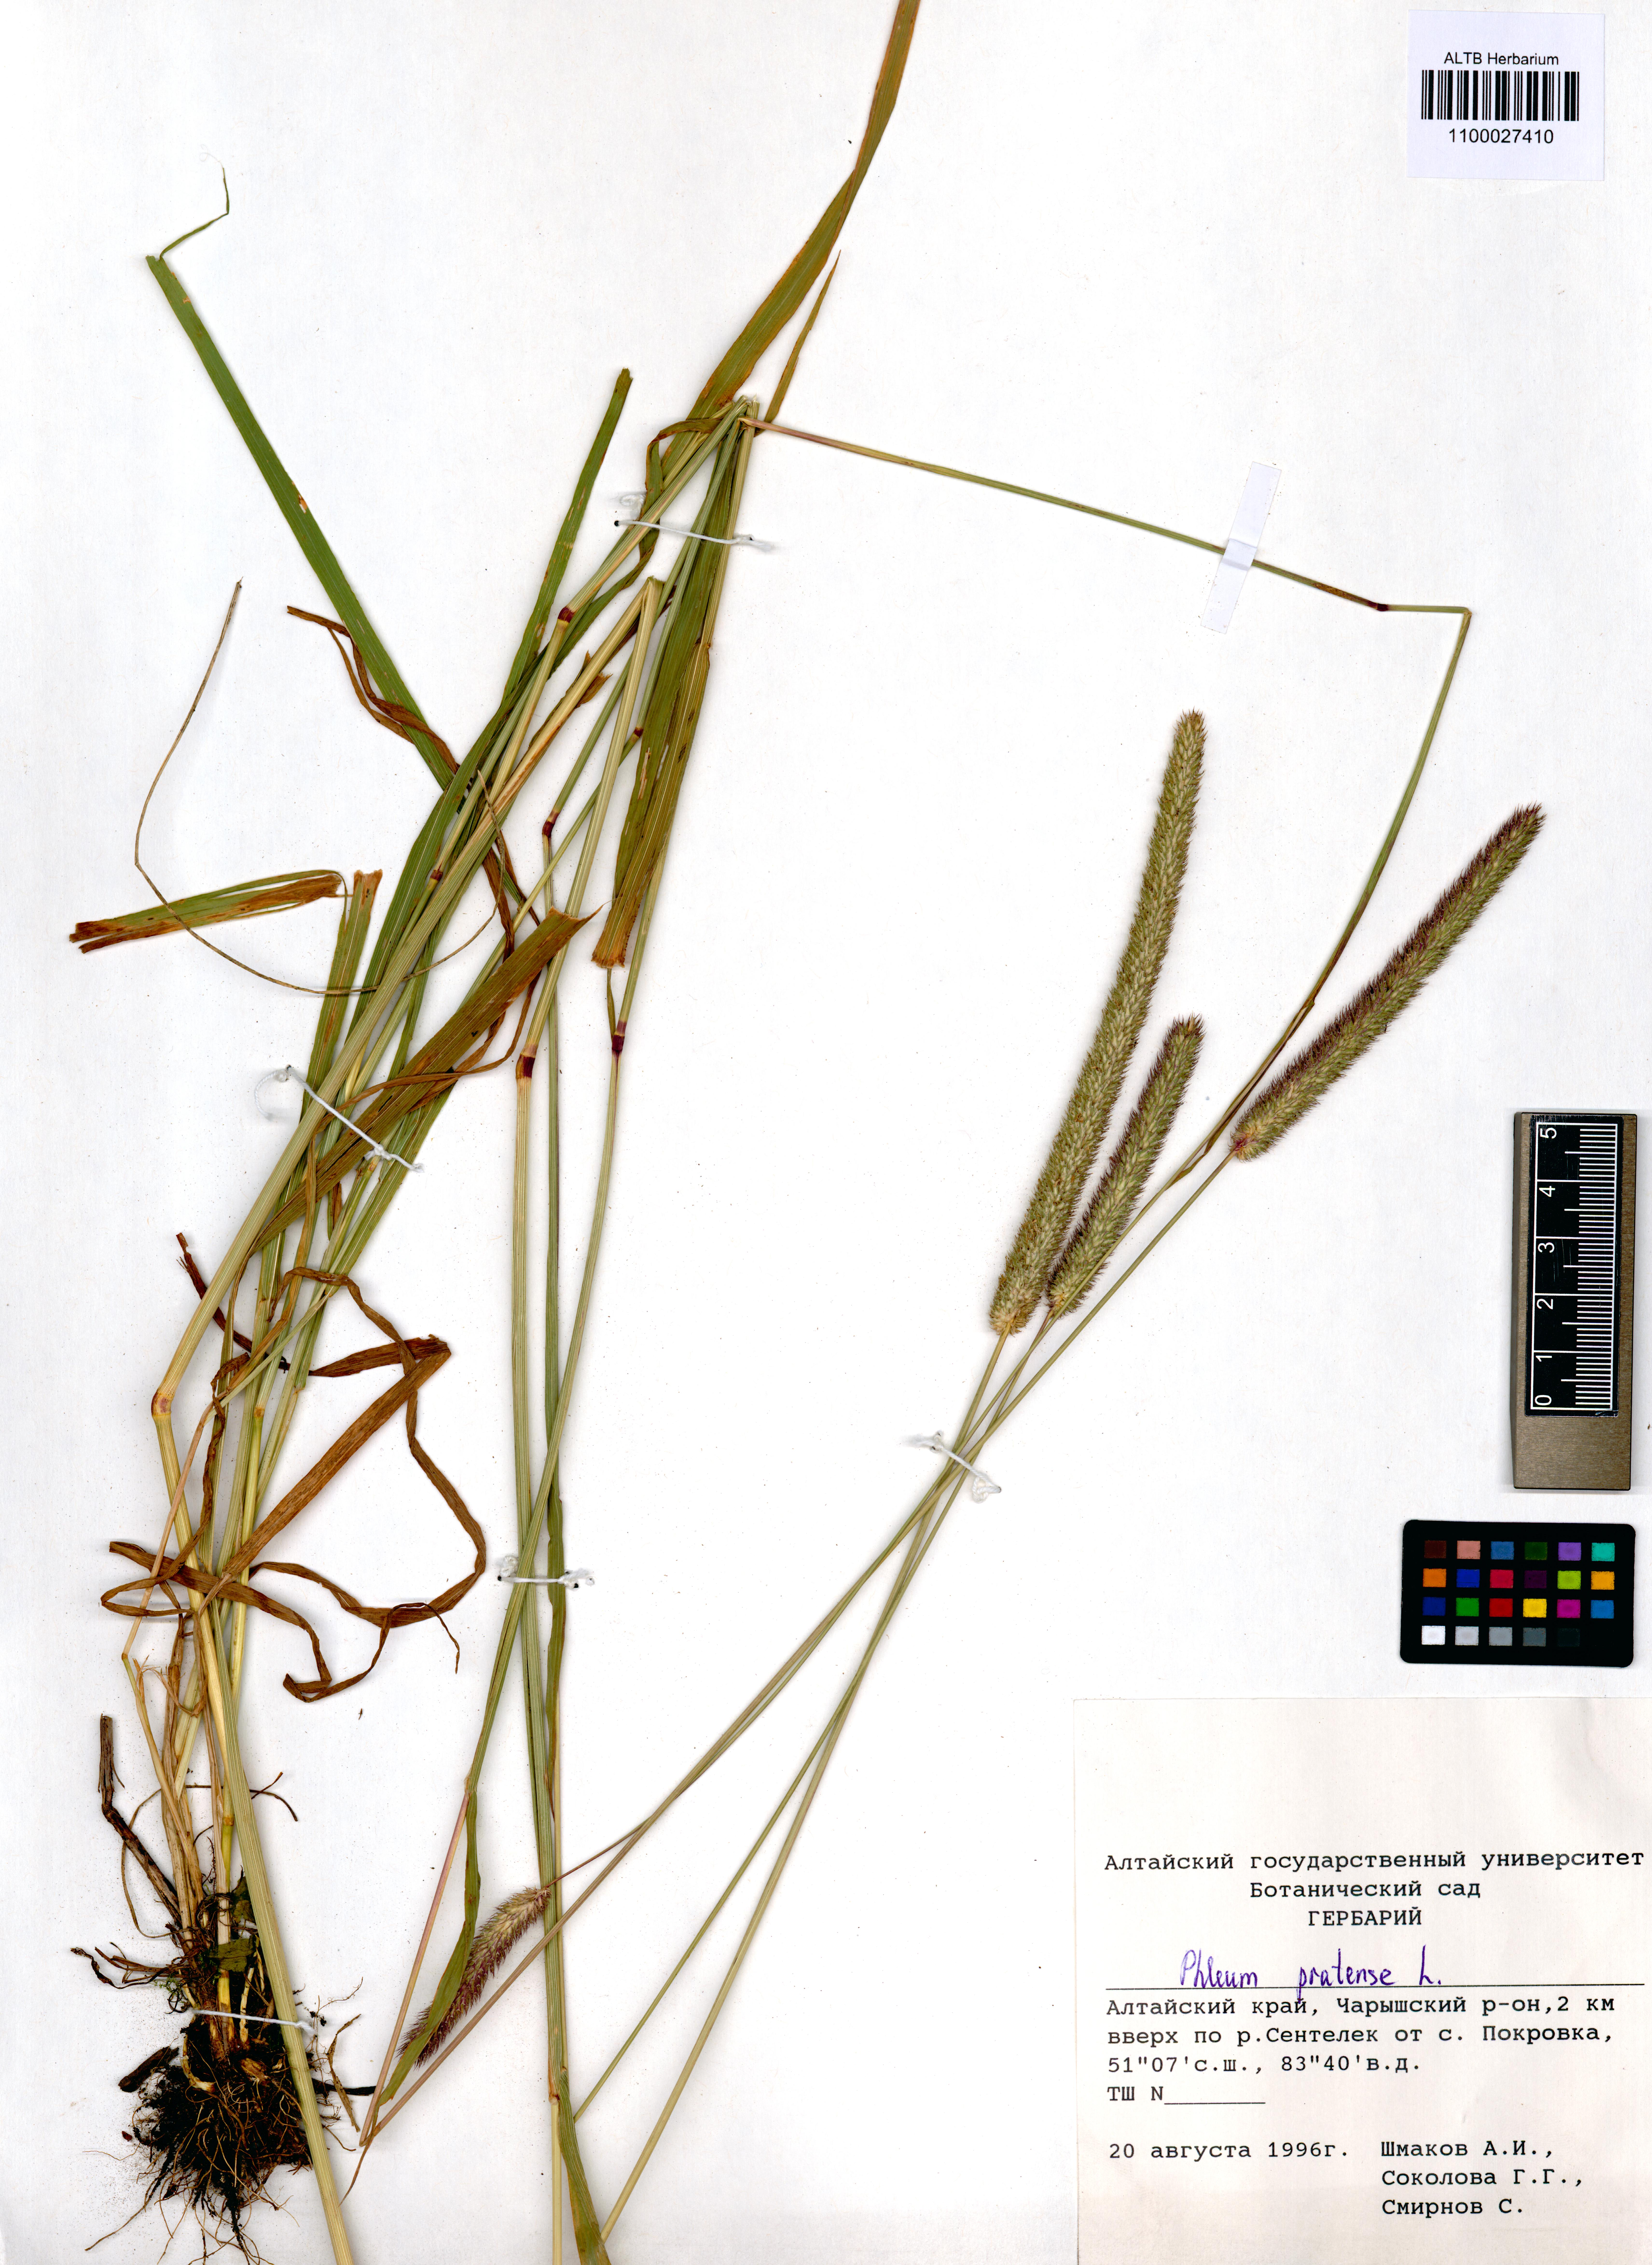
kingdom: Plantae
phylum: Tracheophyta
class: Liliopsida
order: Poales
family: Poaceae
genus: Phleum
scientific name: Phleum pratense
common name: Timothy grass
